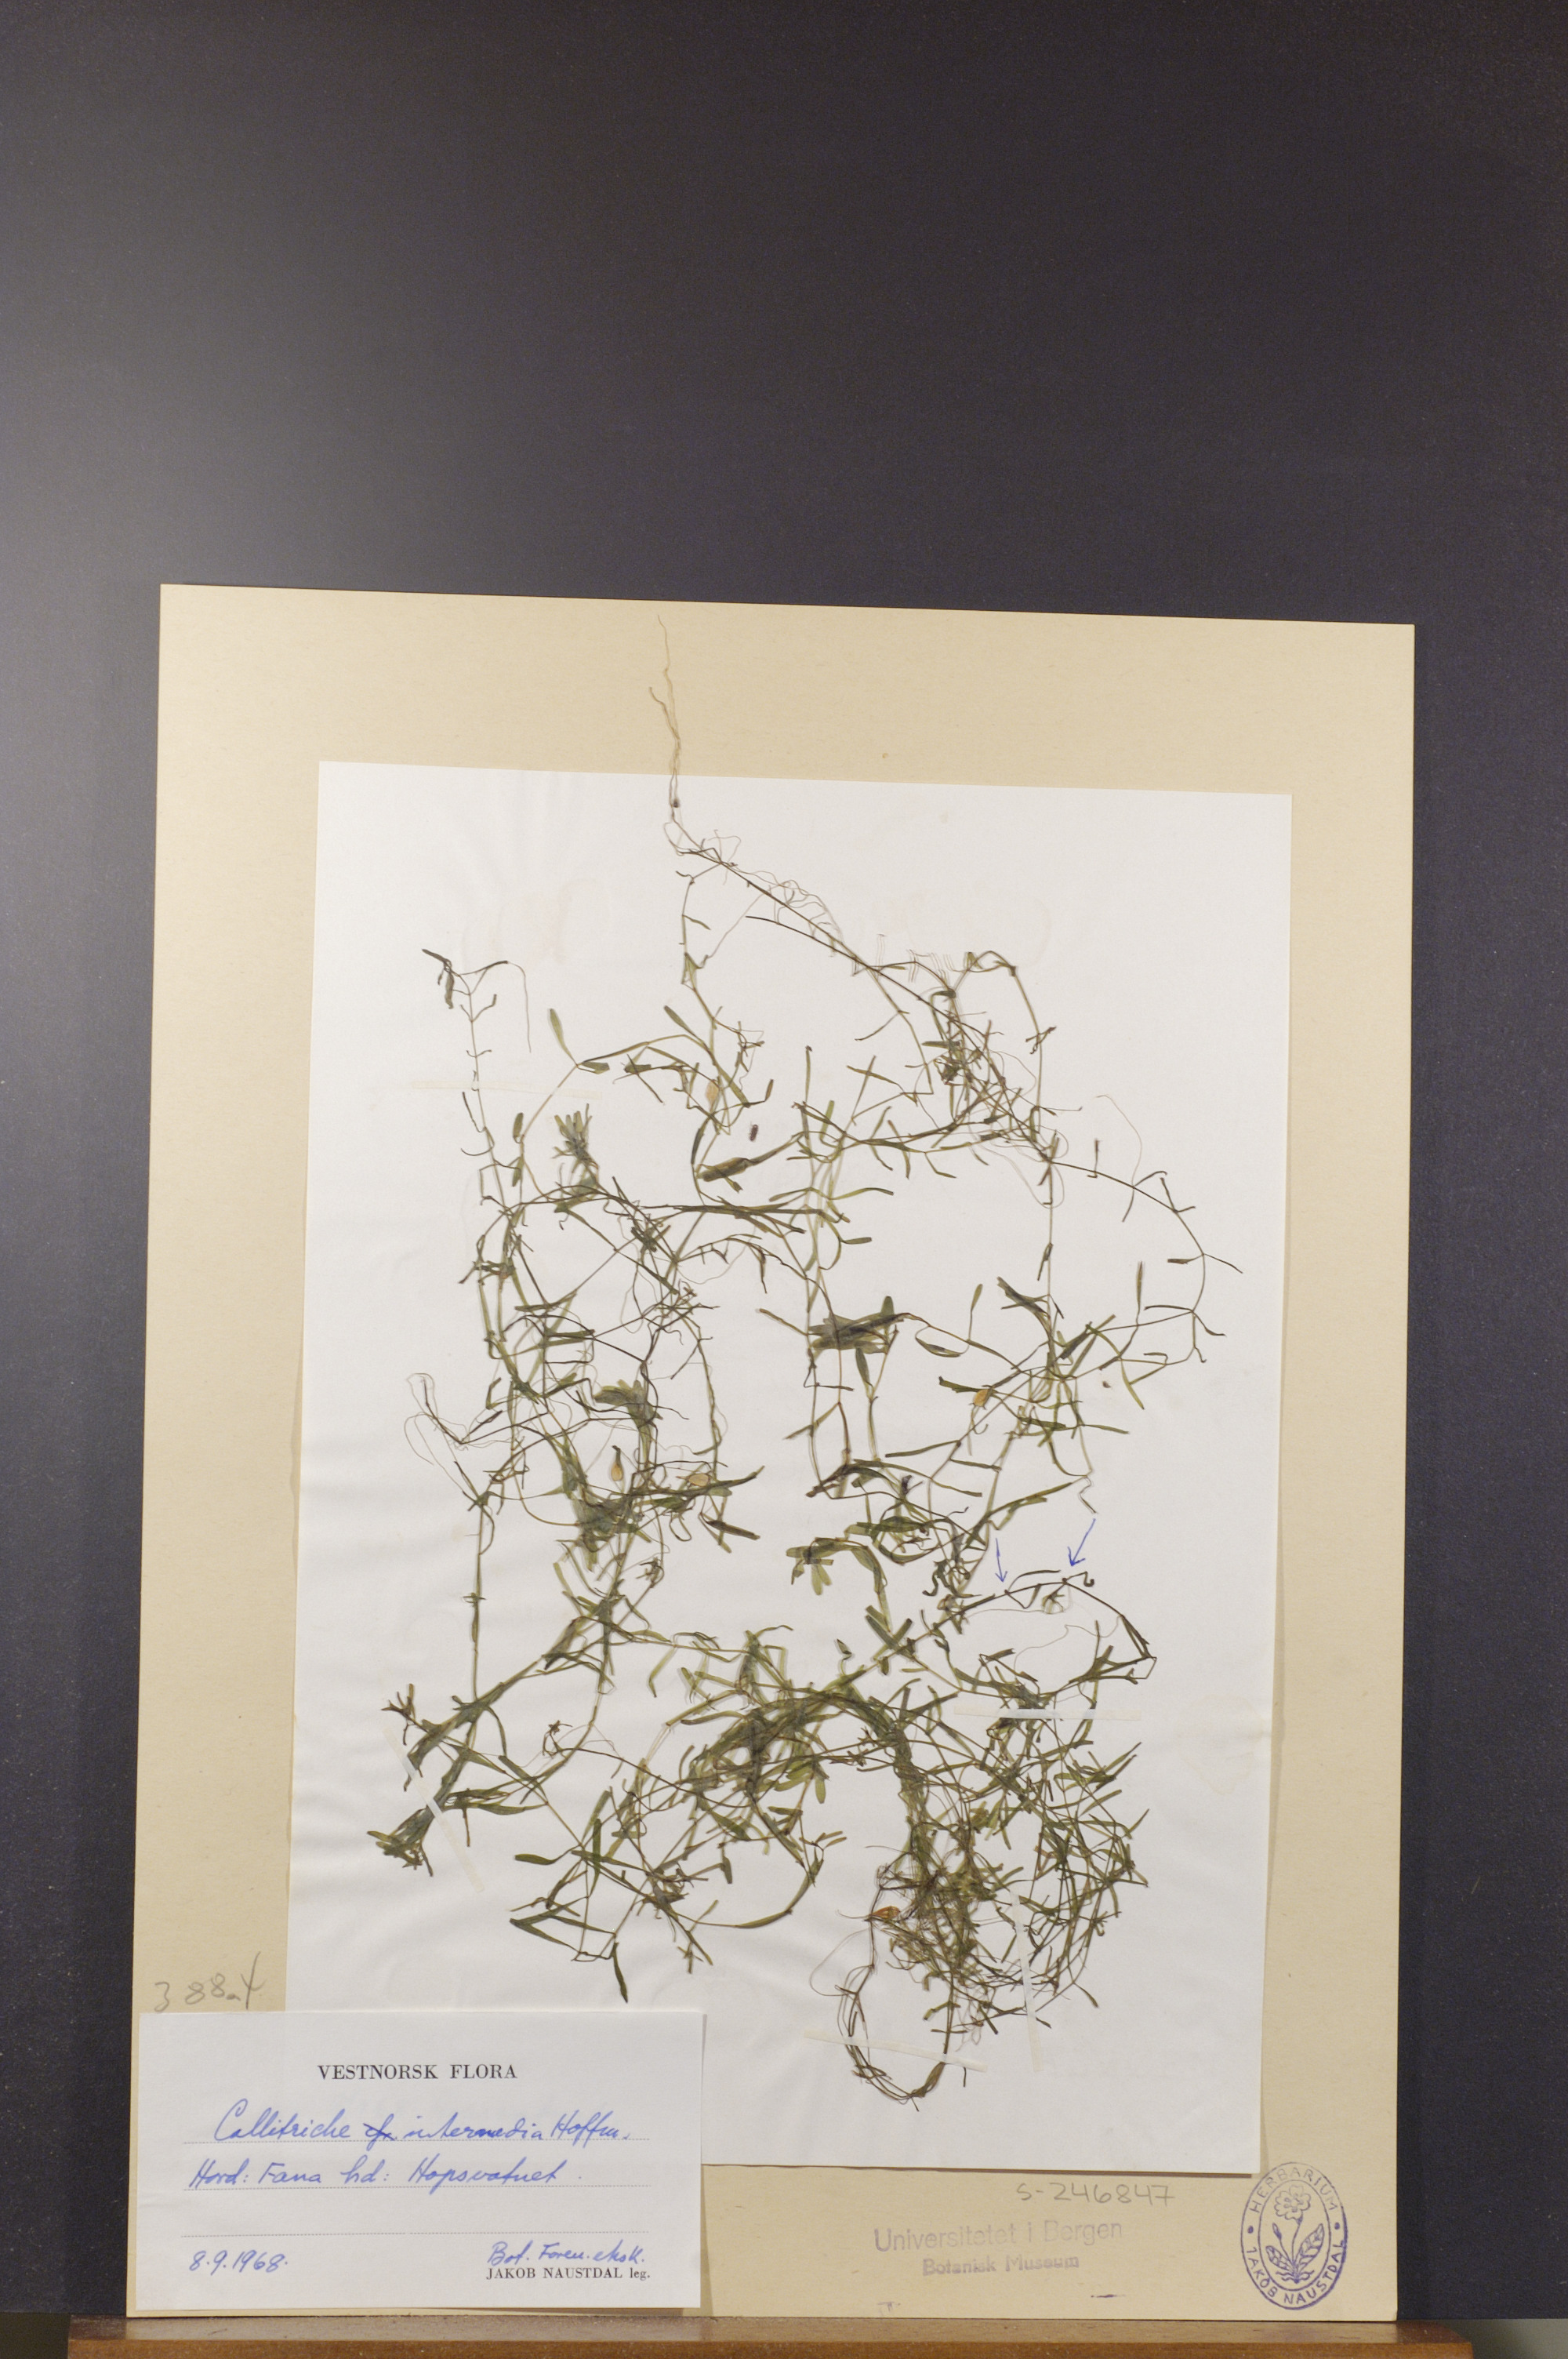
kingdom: Plantae
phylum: Tracheophyta
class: Magnoliopsida
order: Lamiales
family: Plantaginaceae
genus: Callitriche
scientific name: Callitriche hamulata
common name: Intermediate water-starwort
